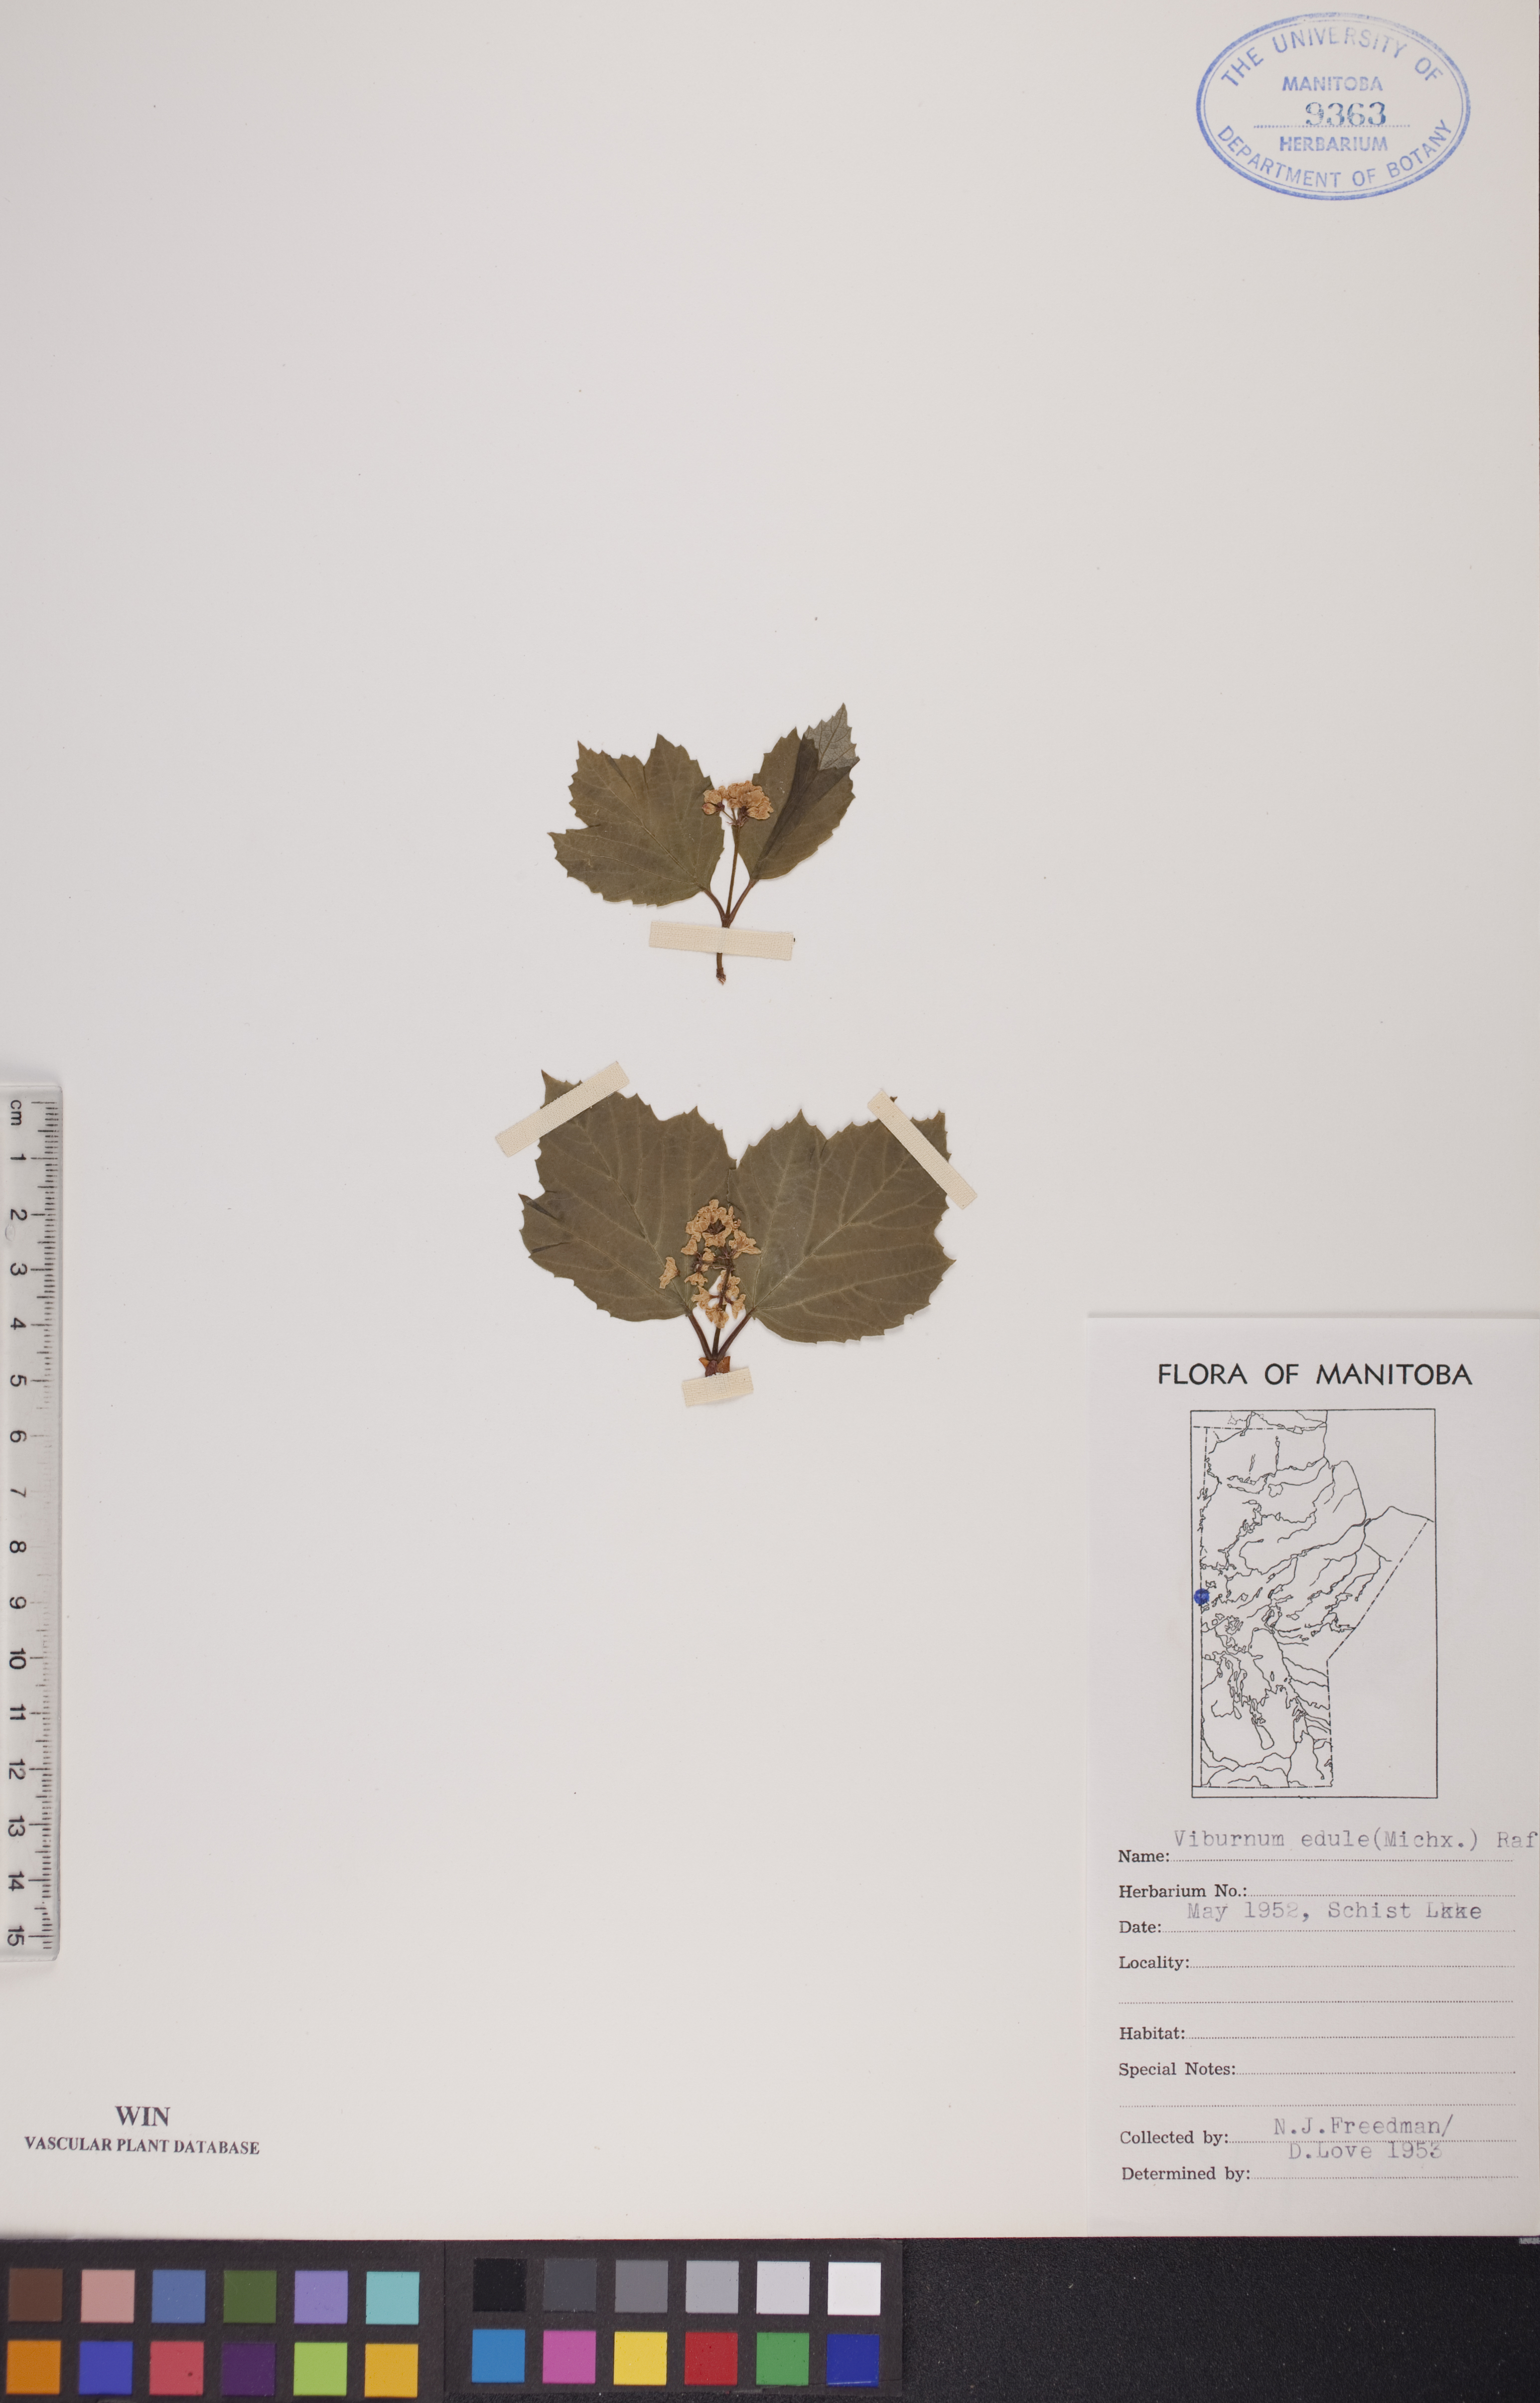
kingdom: Plantae
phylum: Tracheophyta
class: Magnoliopsida
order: Dipsacales
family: Viburnaceae
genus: Viburnum
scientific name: Viburnum edule
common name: Mooseberry
